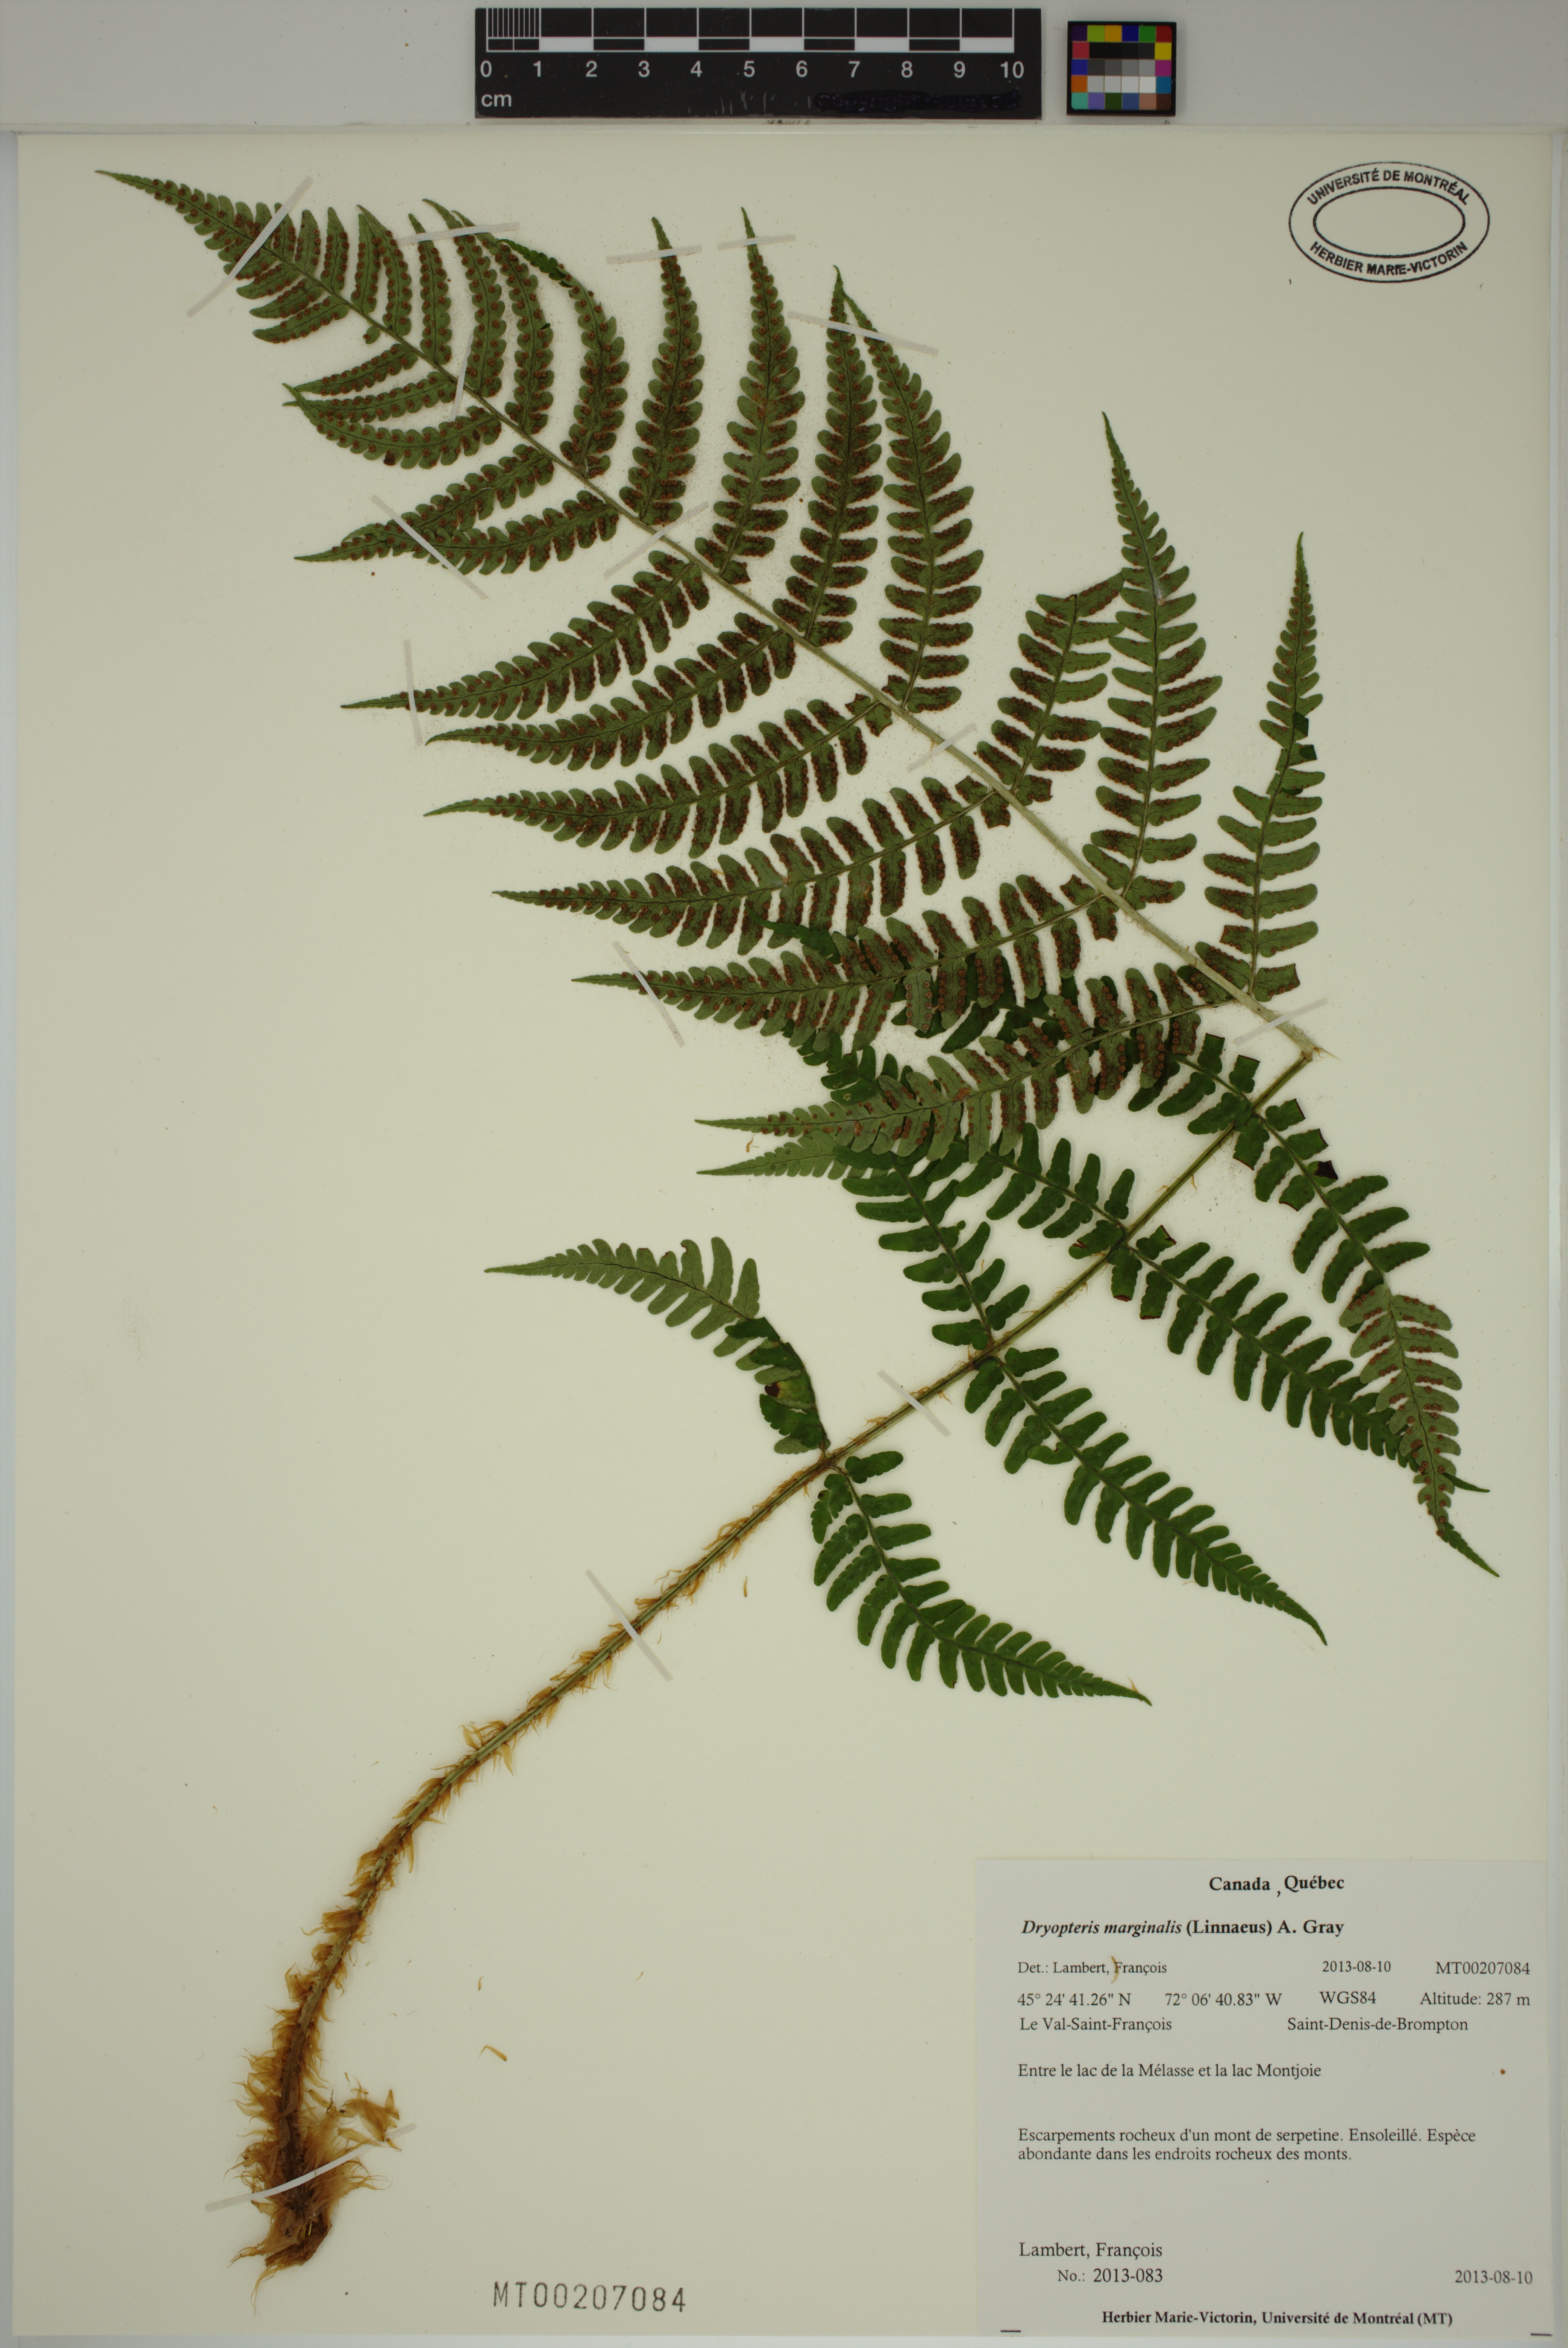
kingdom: Plantae
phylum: Tracheophyta
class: Polypodiopsida
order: Polypodiales
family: Dryopteridaceae
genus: Dryopteris
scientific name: Dryopteris marginalis
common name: Marginal wood fern
